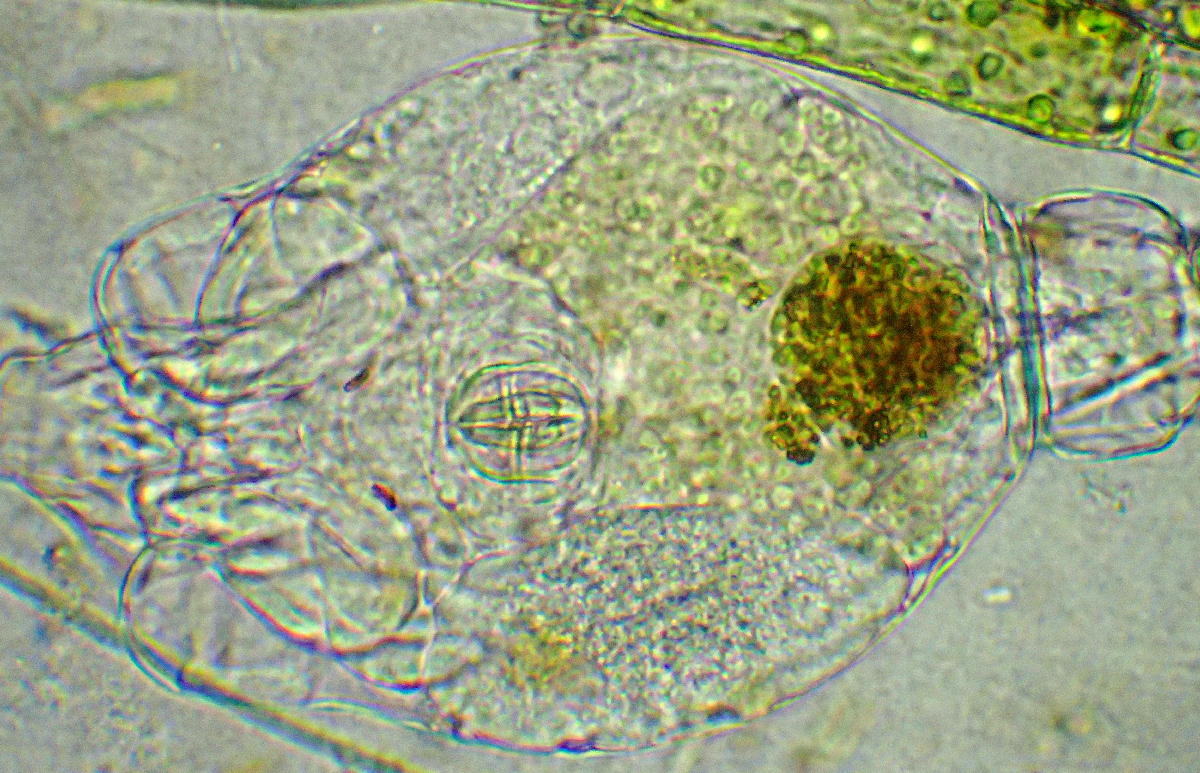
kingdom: Animalia
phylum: Rotifera
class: Eurotatoria
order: Bdelloidea
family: Philodinidae
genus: Rotaria
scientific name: Rotaria citrina
